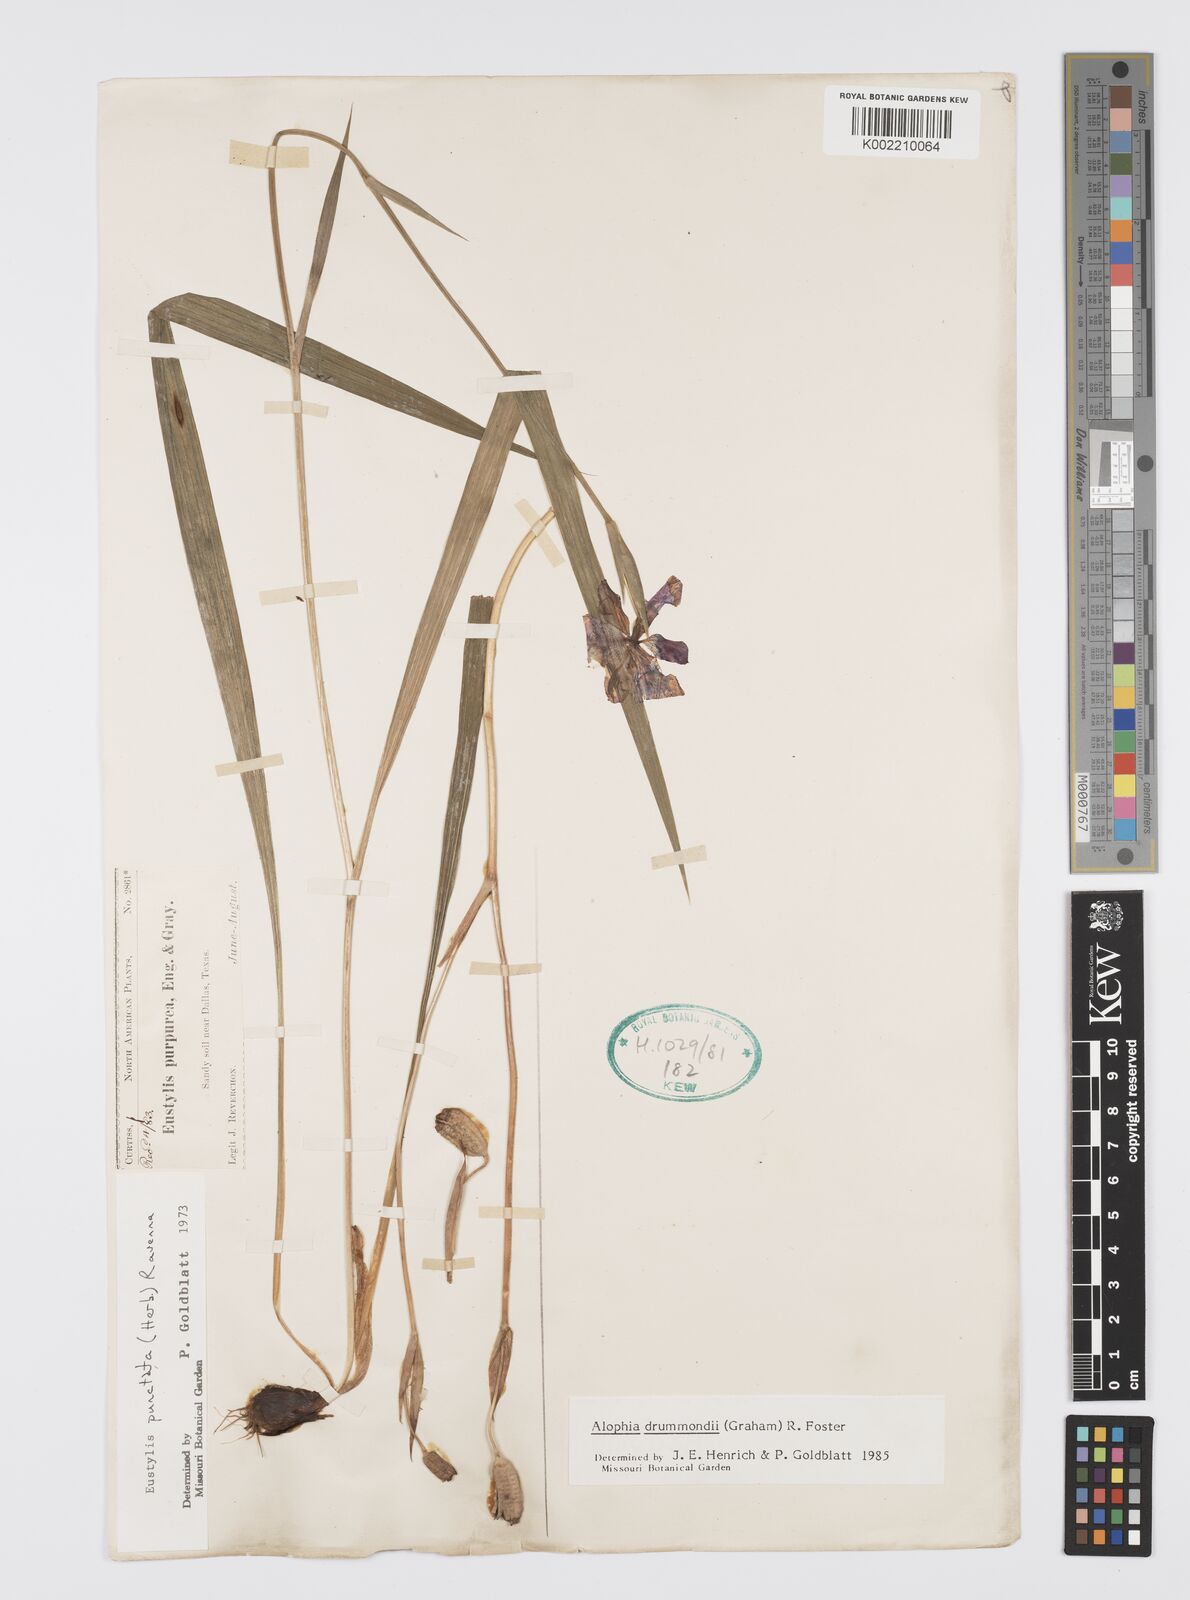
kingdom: Plantae
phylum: Tracheophyta
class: Liliopsida
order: Asparagales
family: Iridaceae
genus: Alophia
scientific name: Alophia drummondii
